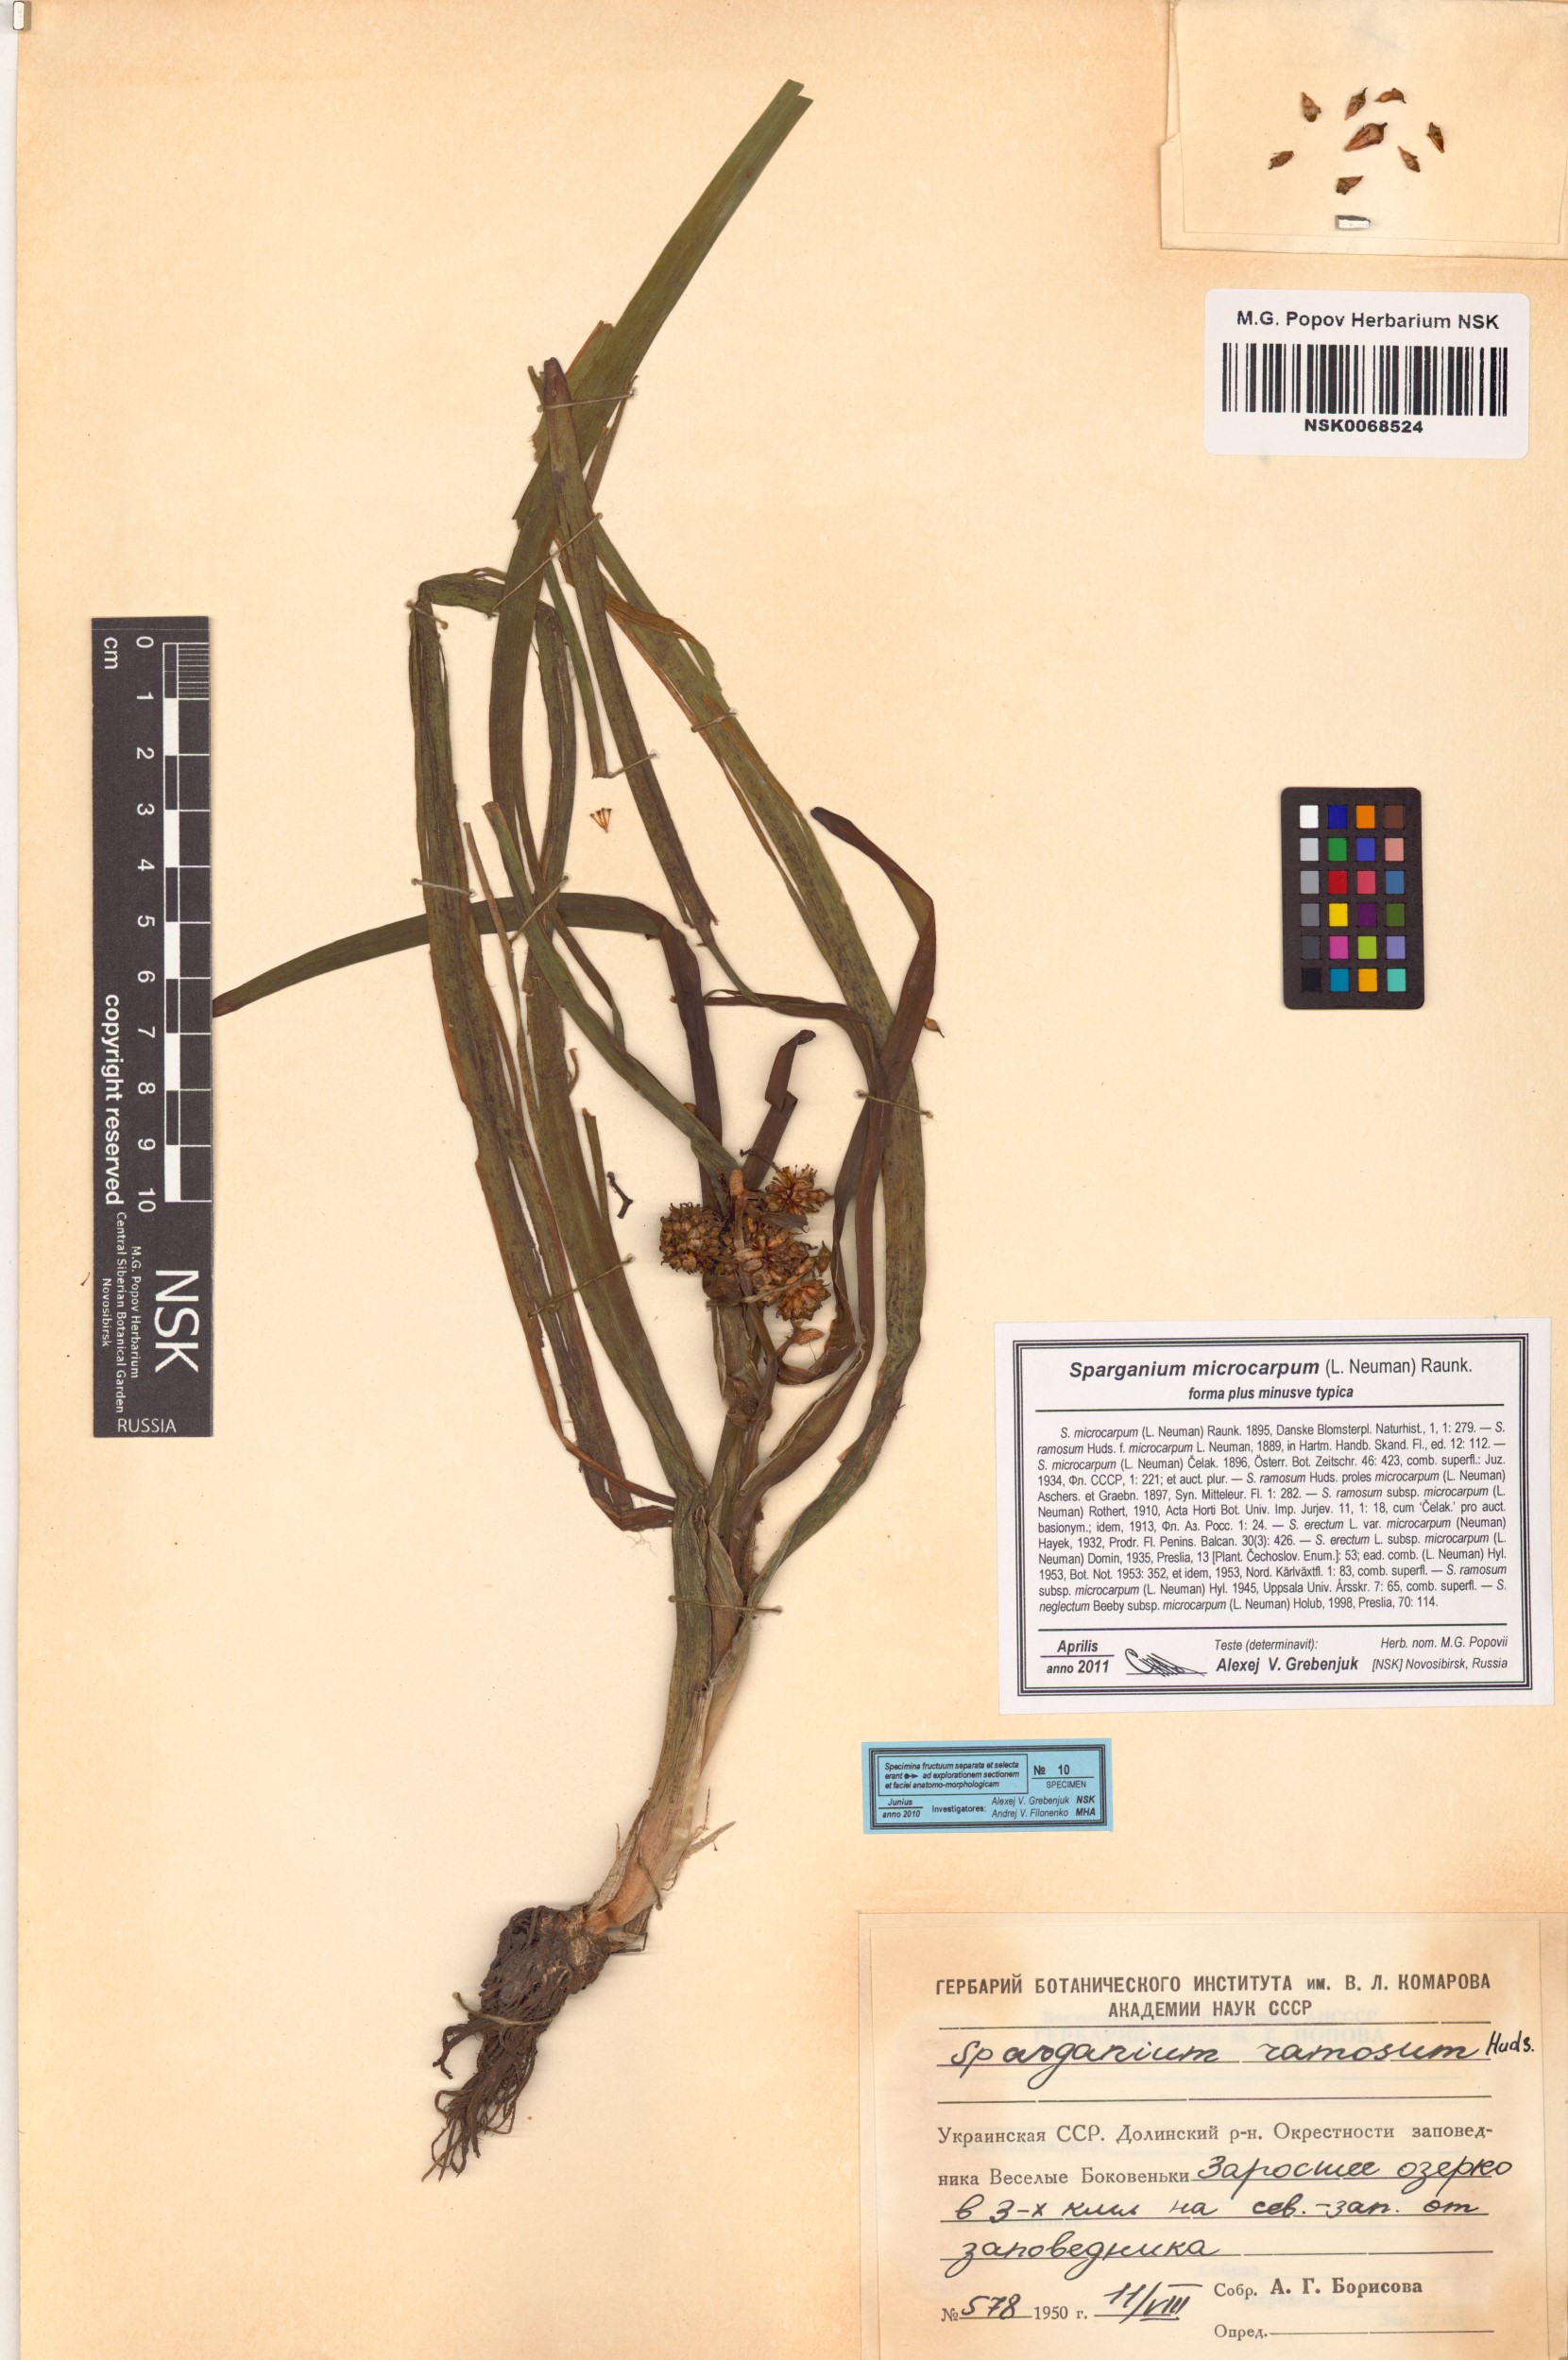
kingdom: Plantae
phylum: Tracheophyta
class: Liliopsida
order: Poales
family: Typhaceae
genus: Sparganium
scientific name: Sparganium erectum
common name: Branched bur-reed
